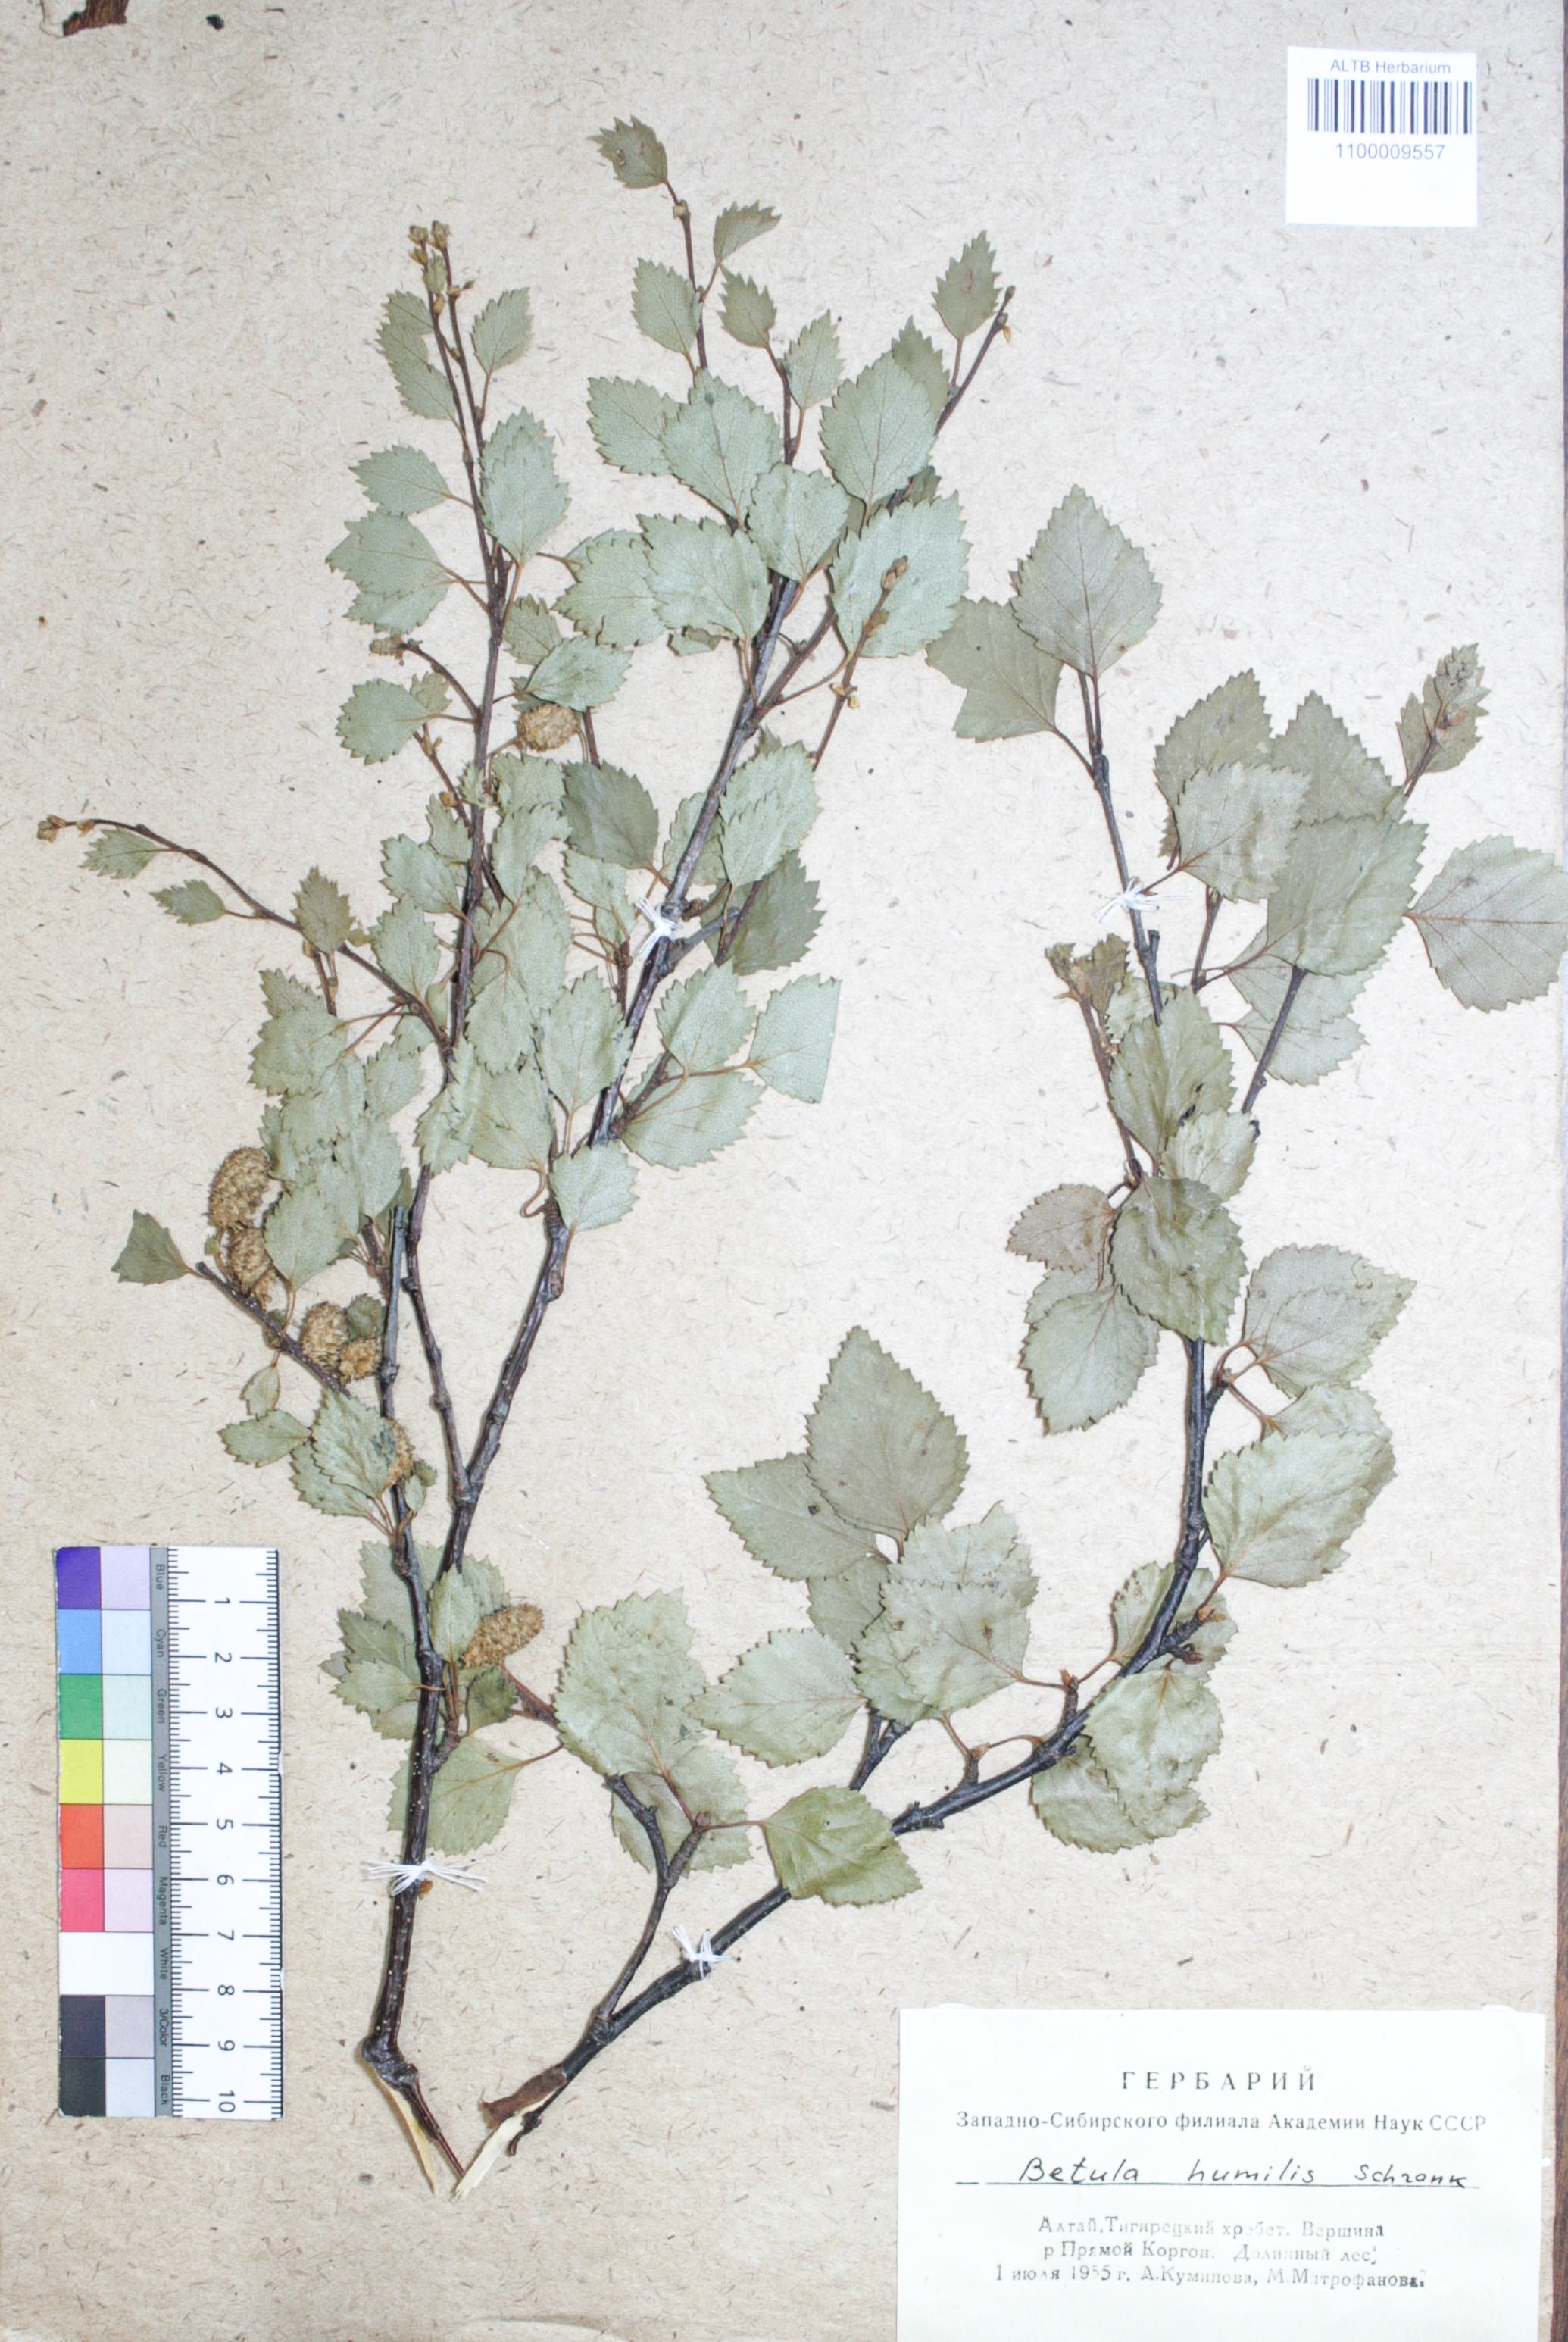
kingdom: Plantae
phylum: Tracheophyta
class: Magnoliopsida
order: Fagales
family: Betulaceae
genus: Betula
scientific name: Betula humilis
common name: Shrubby birch
